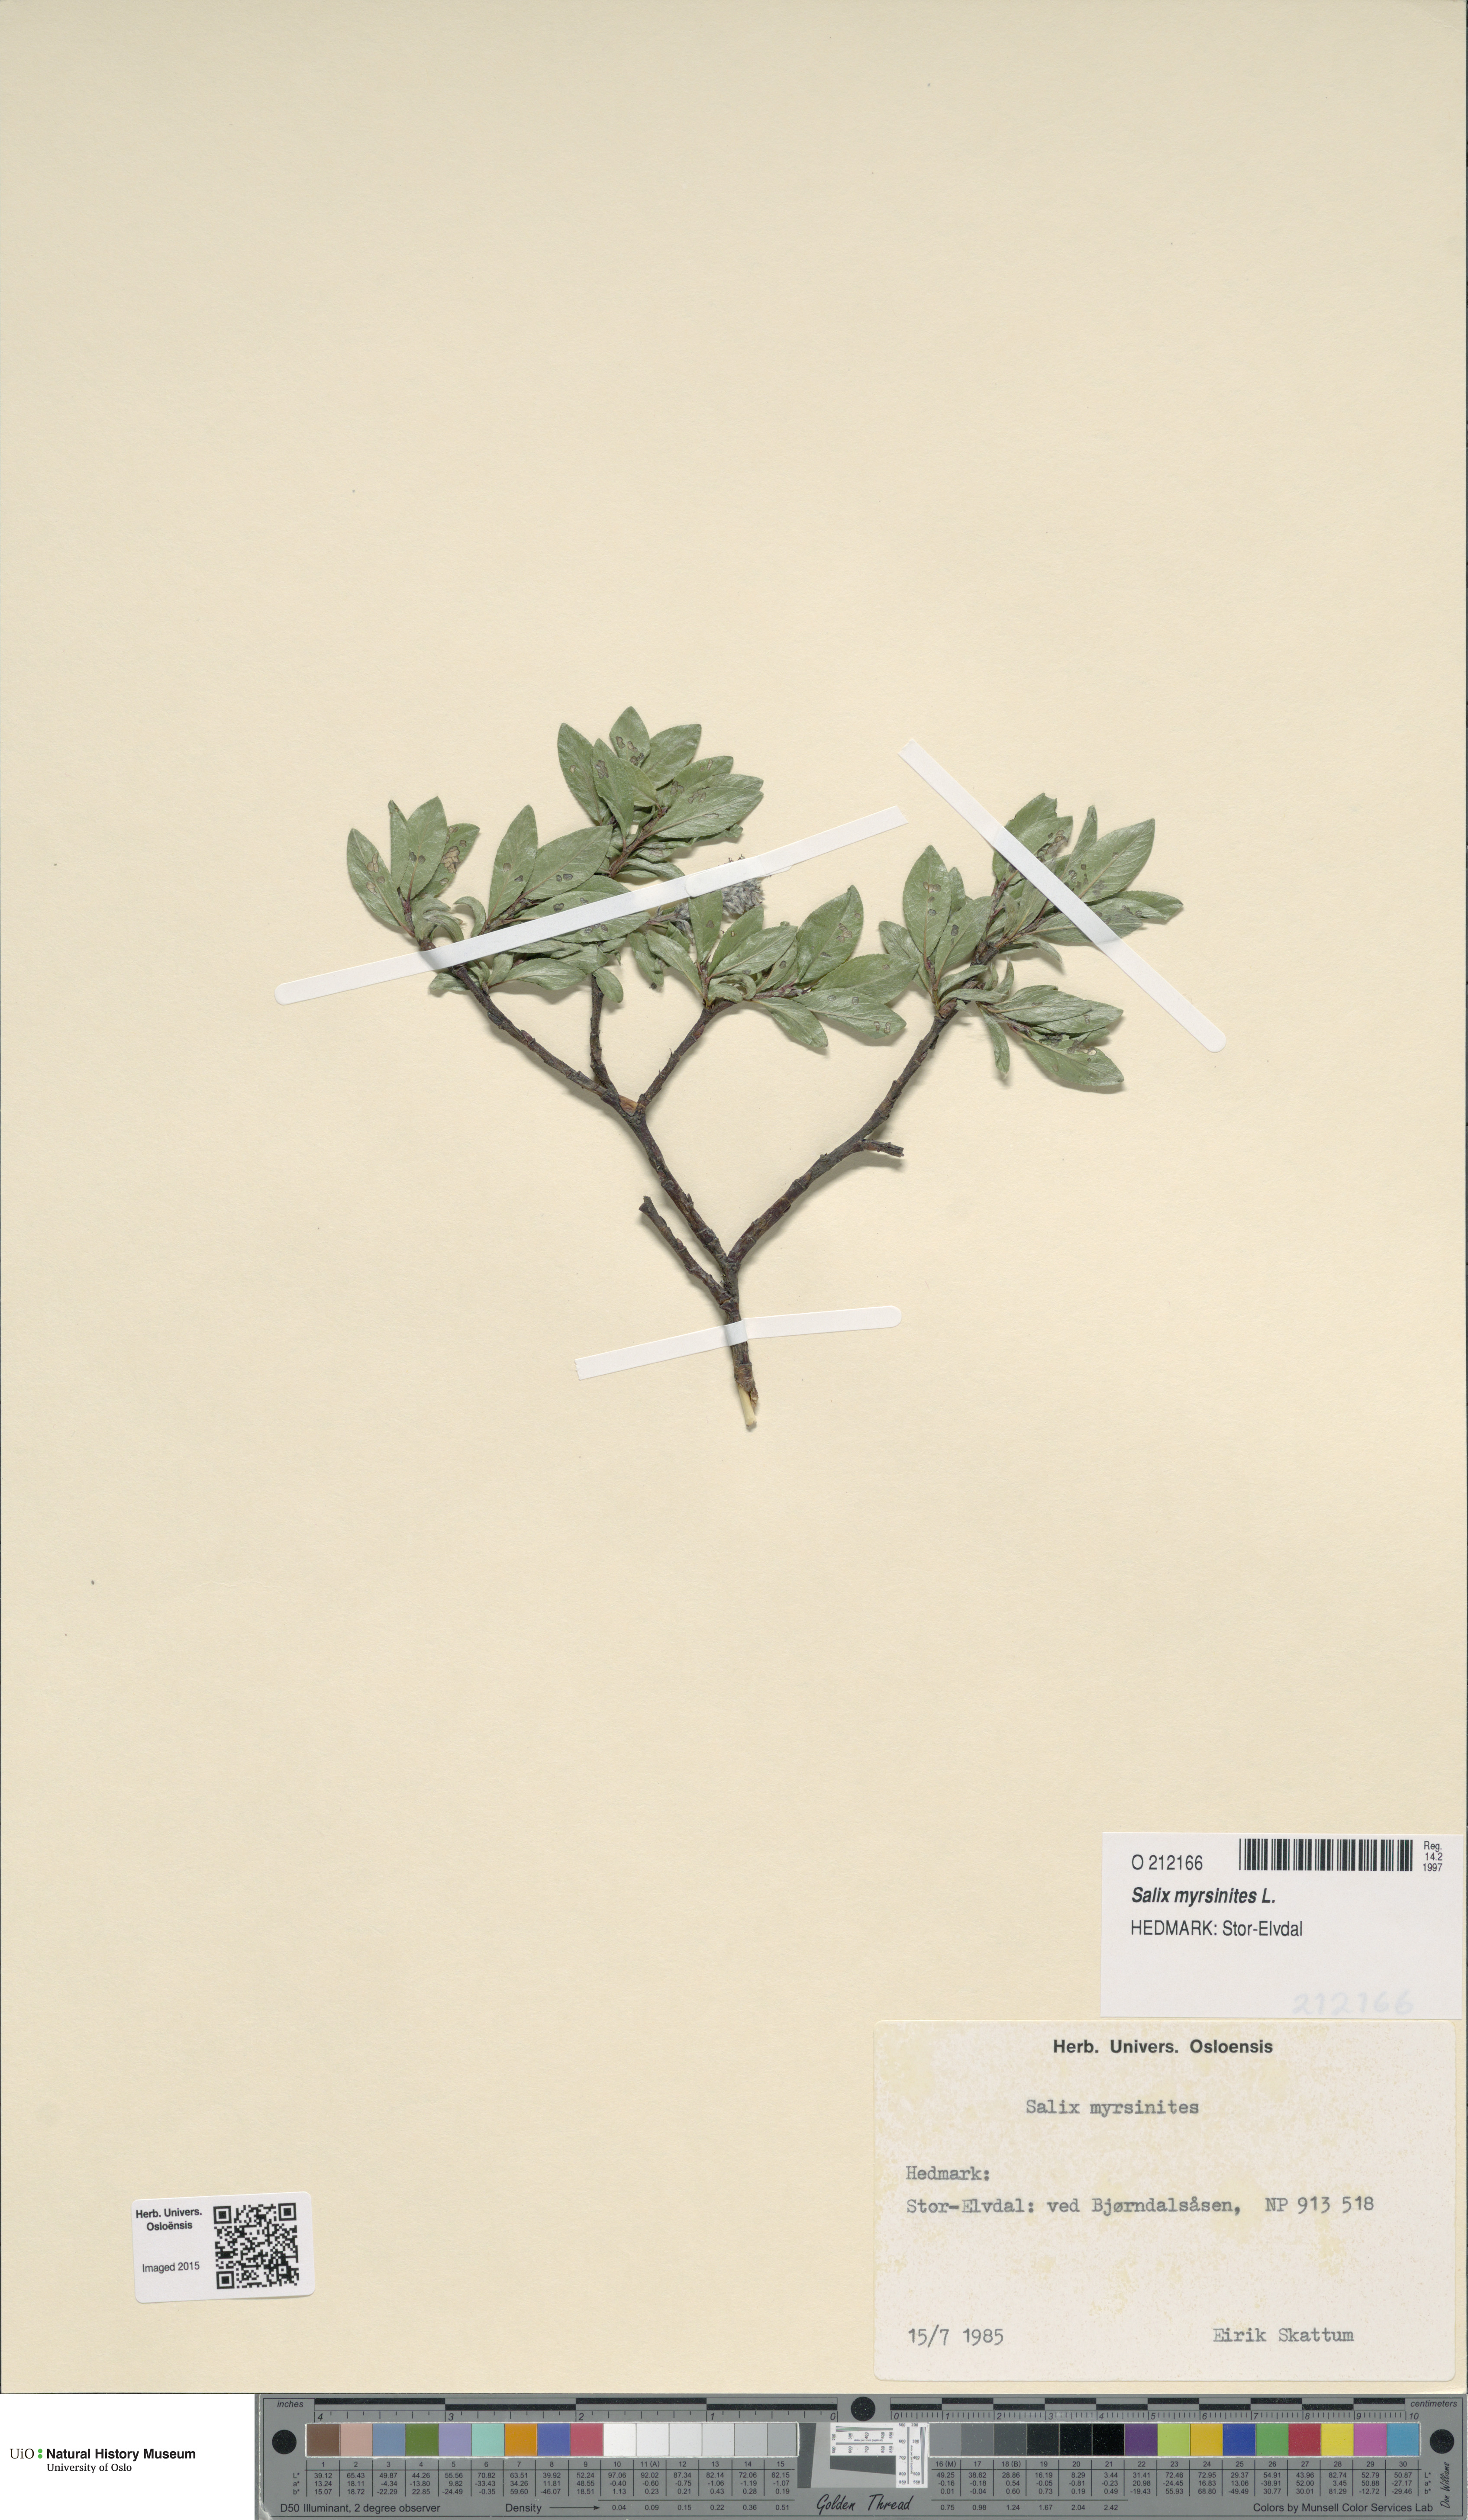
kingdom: Plantae
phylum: Tracheophyta
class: Magnoliopsida
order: Malpighiales
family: Salicaceae
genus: Salix
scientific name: Salix myrsinites
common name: Myrtle willow
